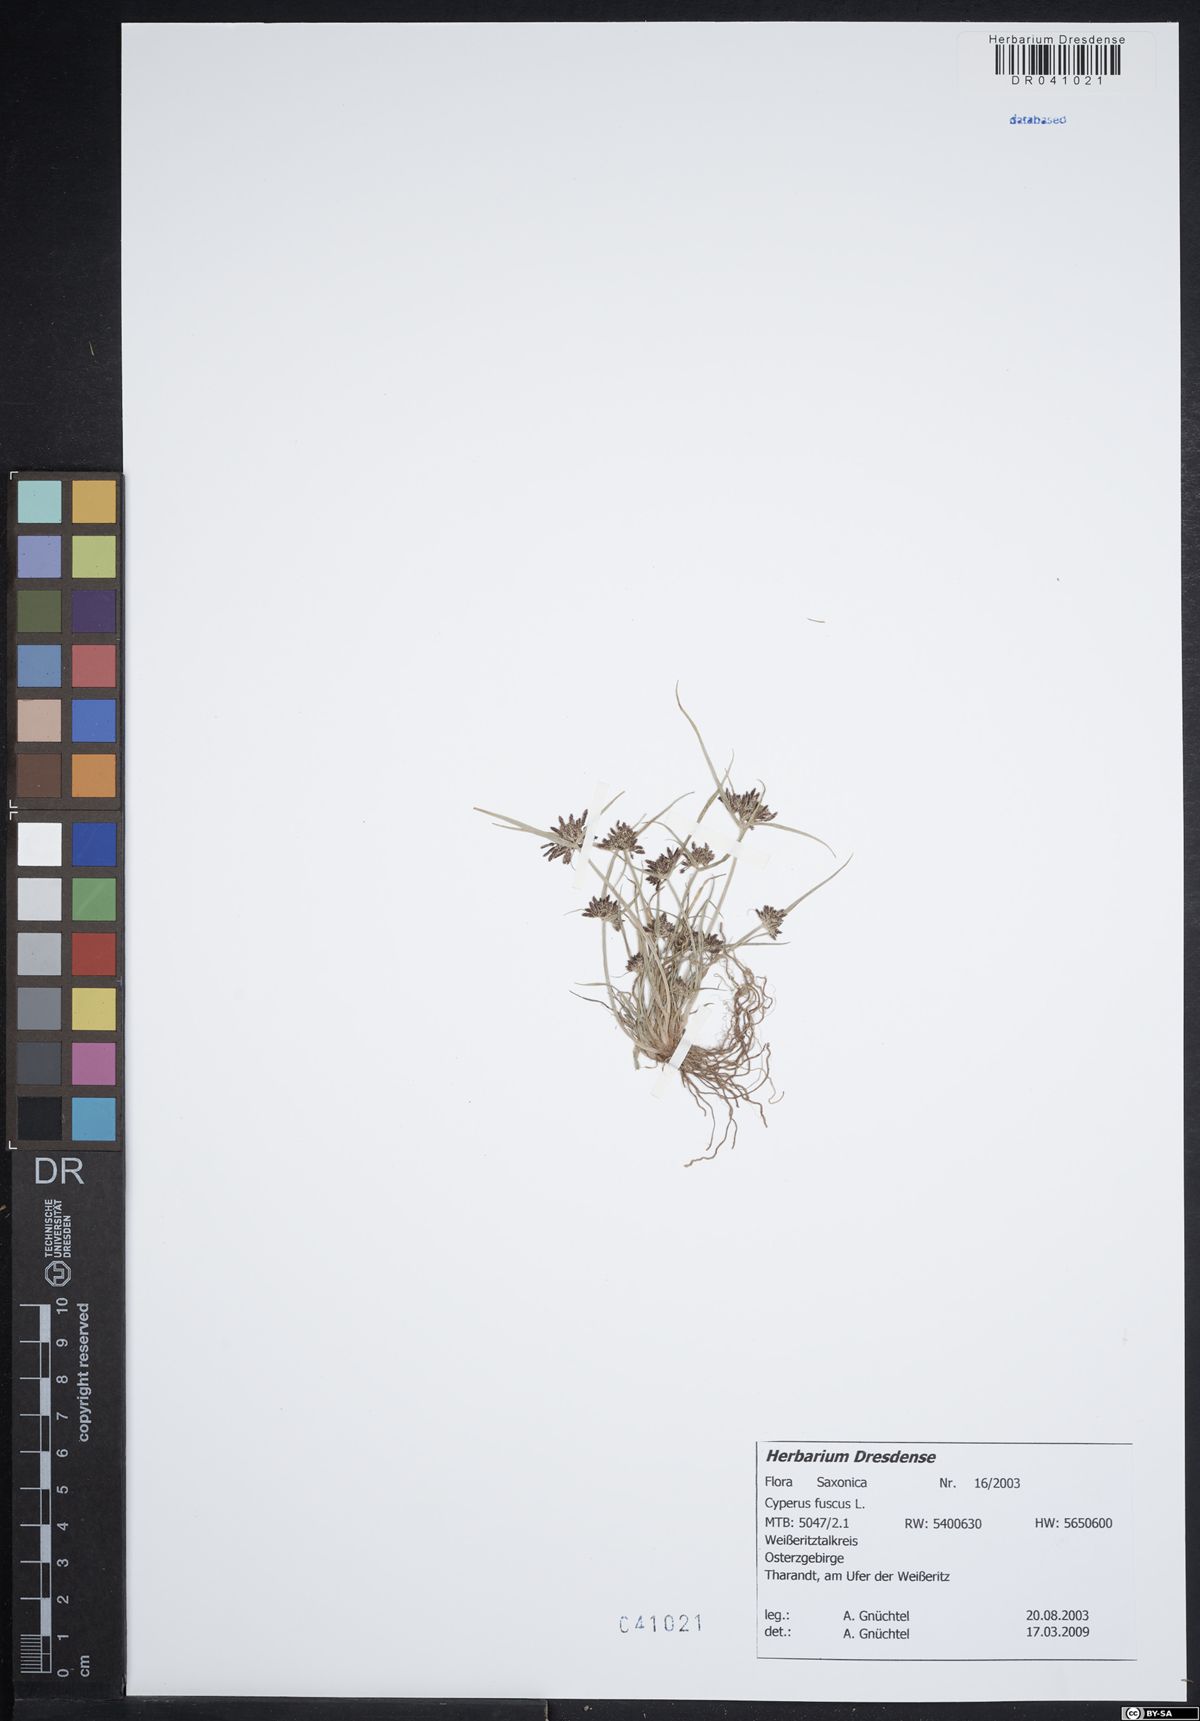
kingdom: Plantae
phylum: Tracheophyta
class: Liliopsida
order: Poales
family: Cyperaceae
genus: Cyperus
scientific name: Cyperus fuscus
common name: Brown galingale
